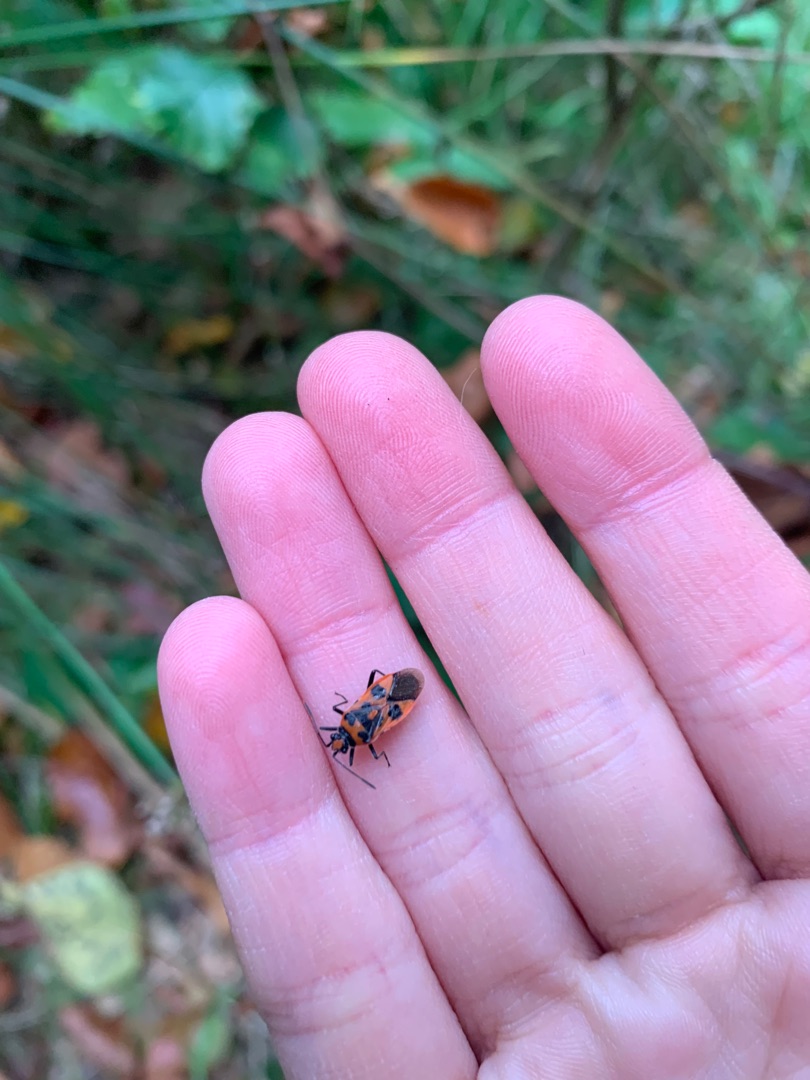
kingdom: Animalia
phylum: Arthropoda
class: Insecta
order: Hemiptera
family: Rhopalidae
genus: Corizus
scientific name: Corizus hyoscyami
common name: Rød kanttæge
